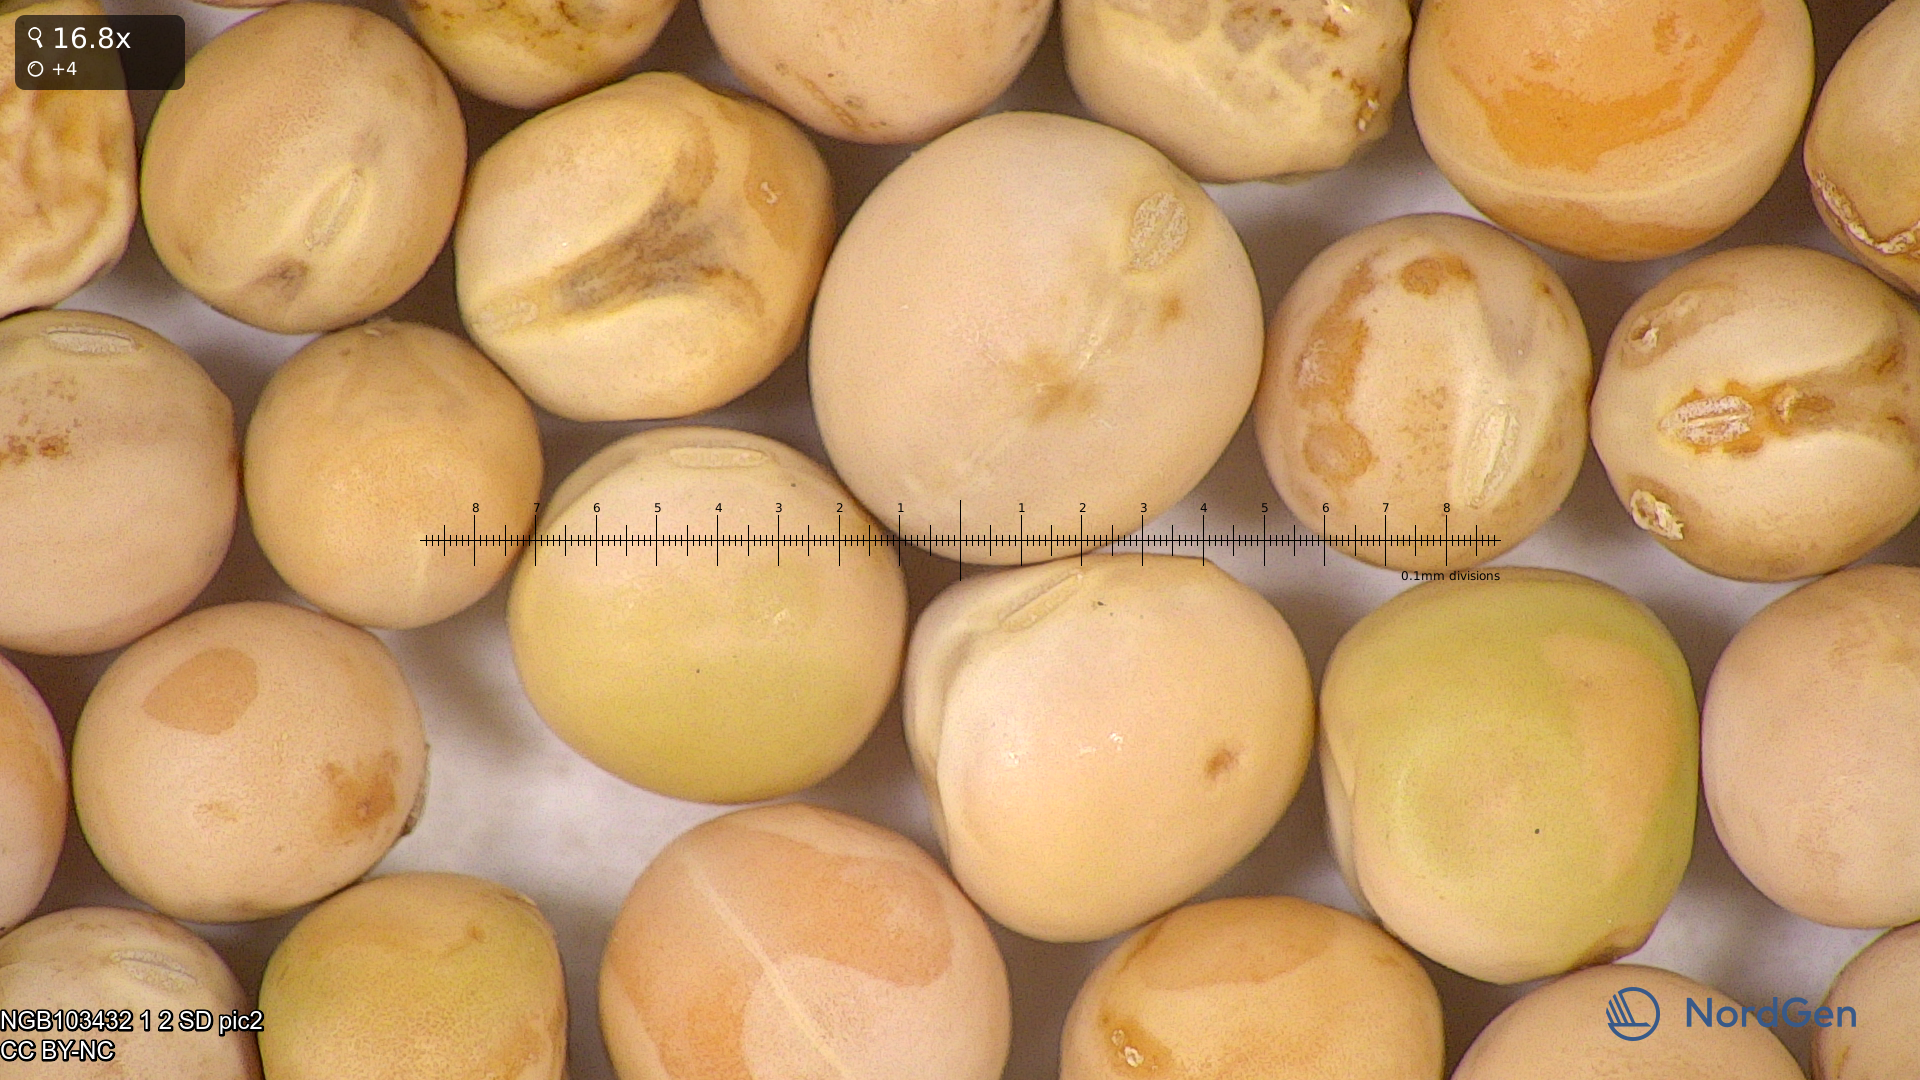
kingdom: Plantae
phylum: Tracheophyta
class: Magnoliopsida
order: Fabales
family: Fabaceae
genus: Lathyrus
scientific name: Lathyrus oleraceus
